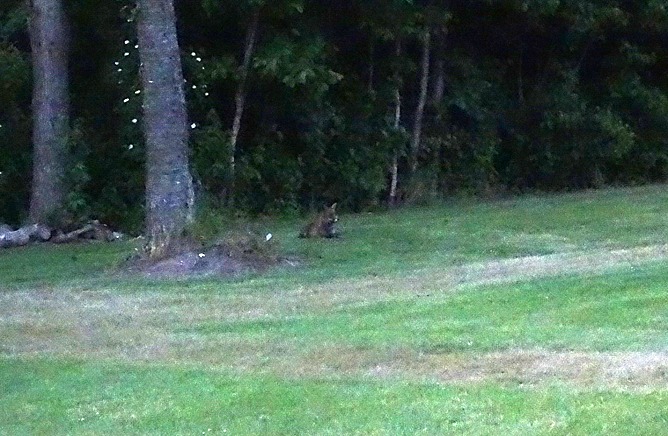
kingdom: Animalia
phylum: Chordata
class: Mammalia
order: Carnivora
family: Canidae
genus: Vulpes
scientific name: Vulpes vulpes
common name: Ræv
